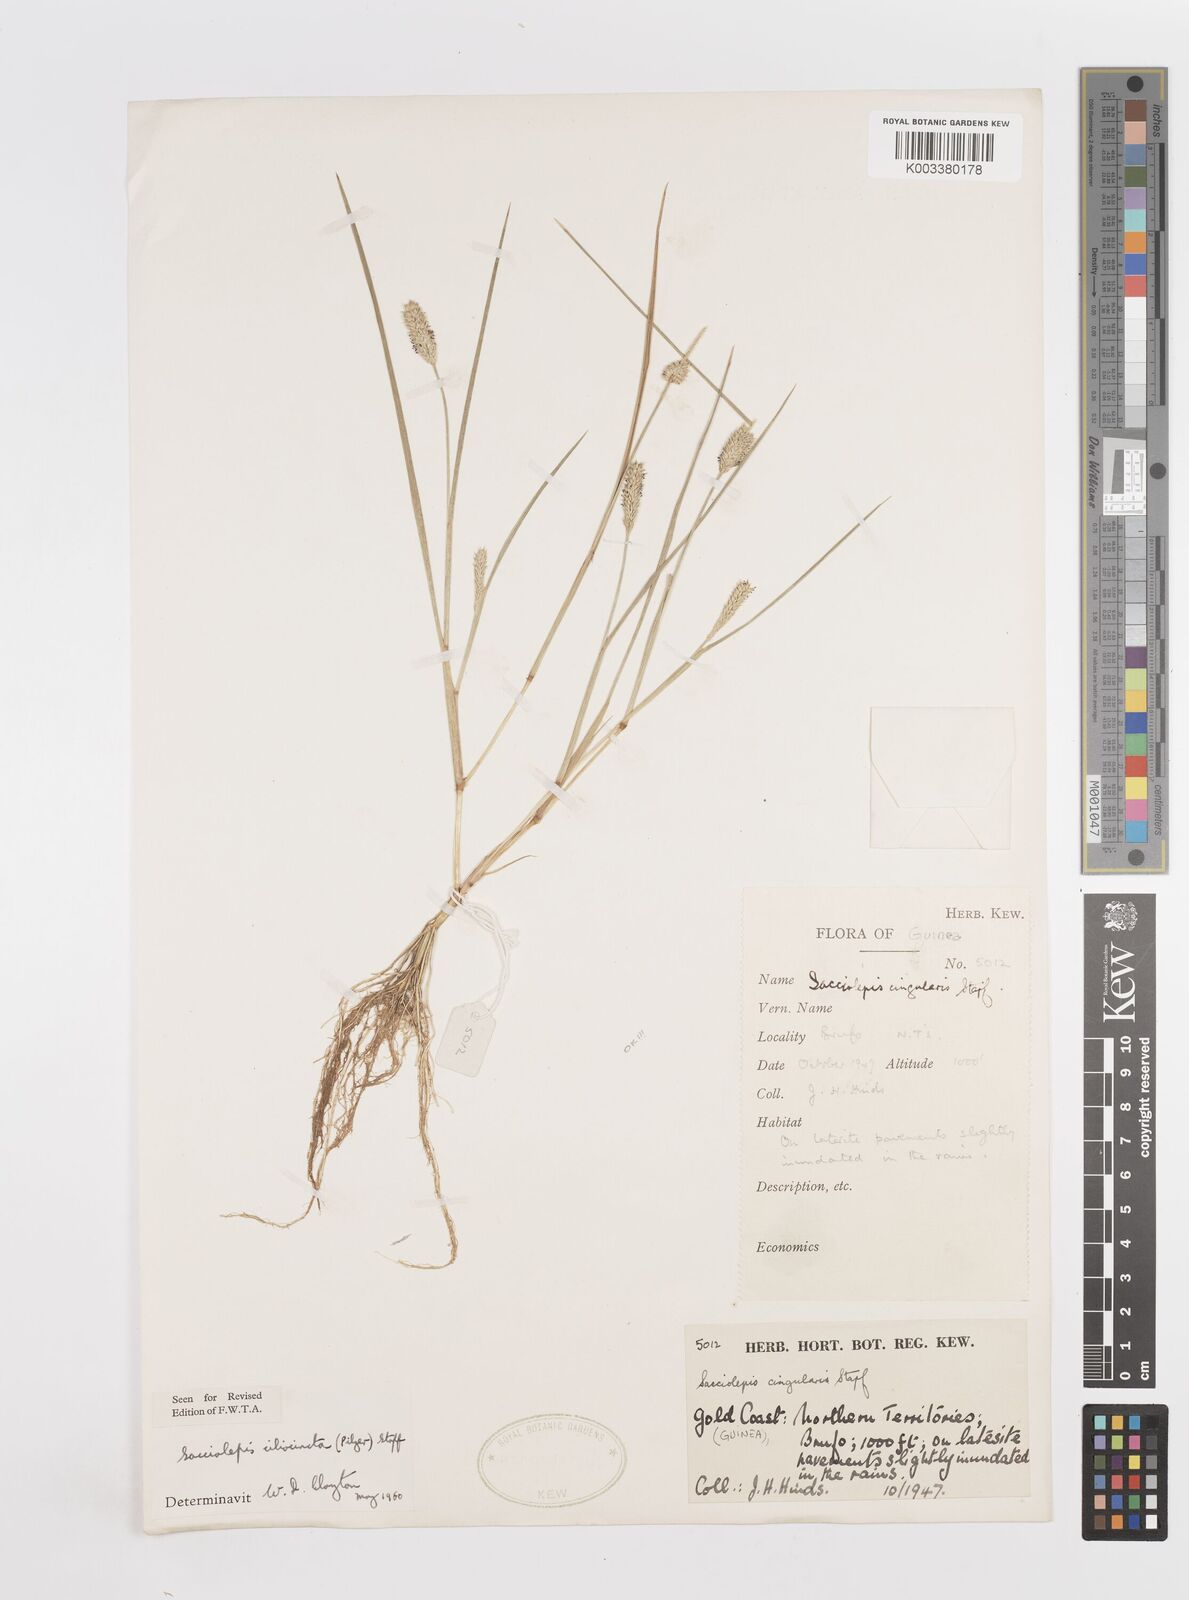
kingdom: Plantae
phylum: Tracheophyta
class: Liliopsida
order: Poales
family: Poaceae
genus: Sacciolepis
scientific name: Sacciolepis ciliocincta
